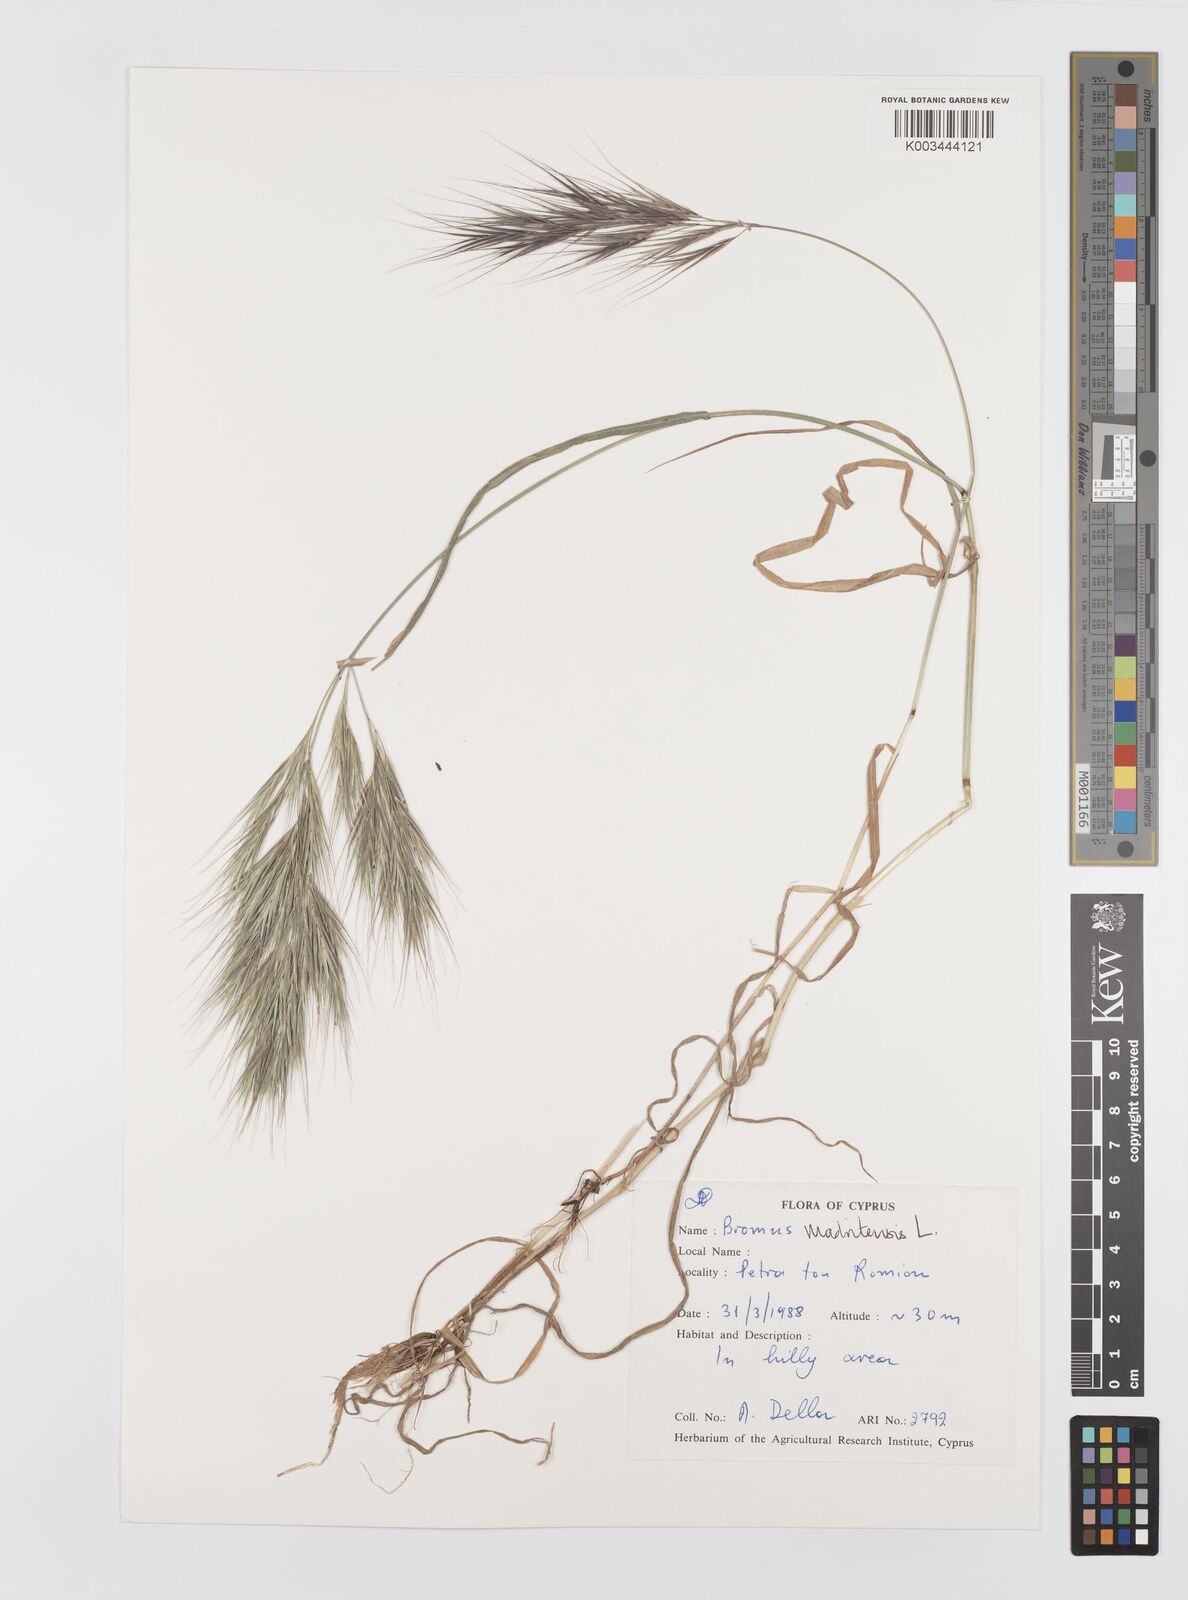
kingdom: Plantae
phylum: Tracheophyta
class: Liliopsida
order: Poales
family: Poaceae
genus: Bromus
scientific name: Bromus madritensis
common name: Compact brome
